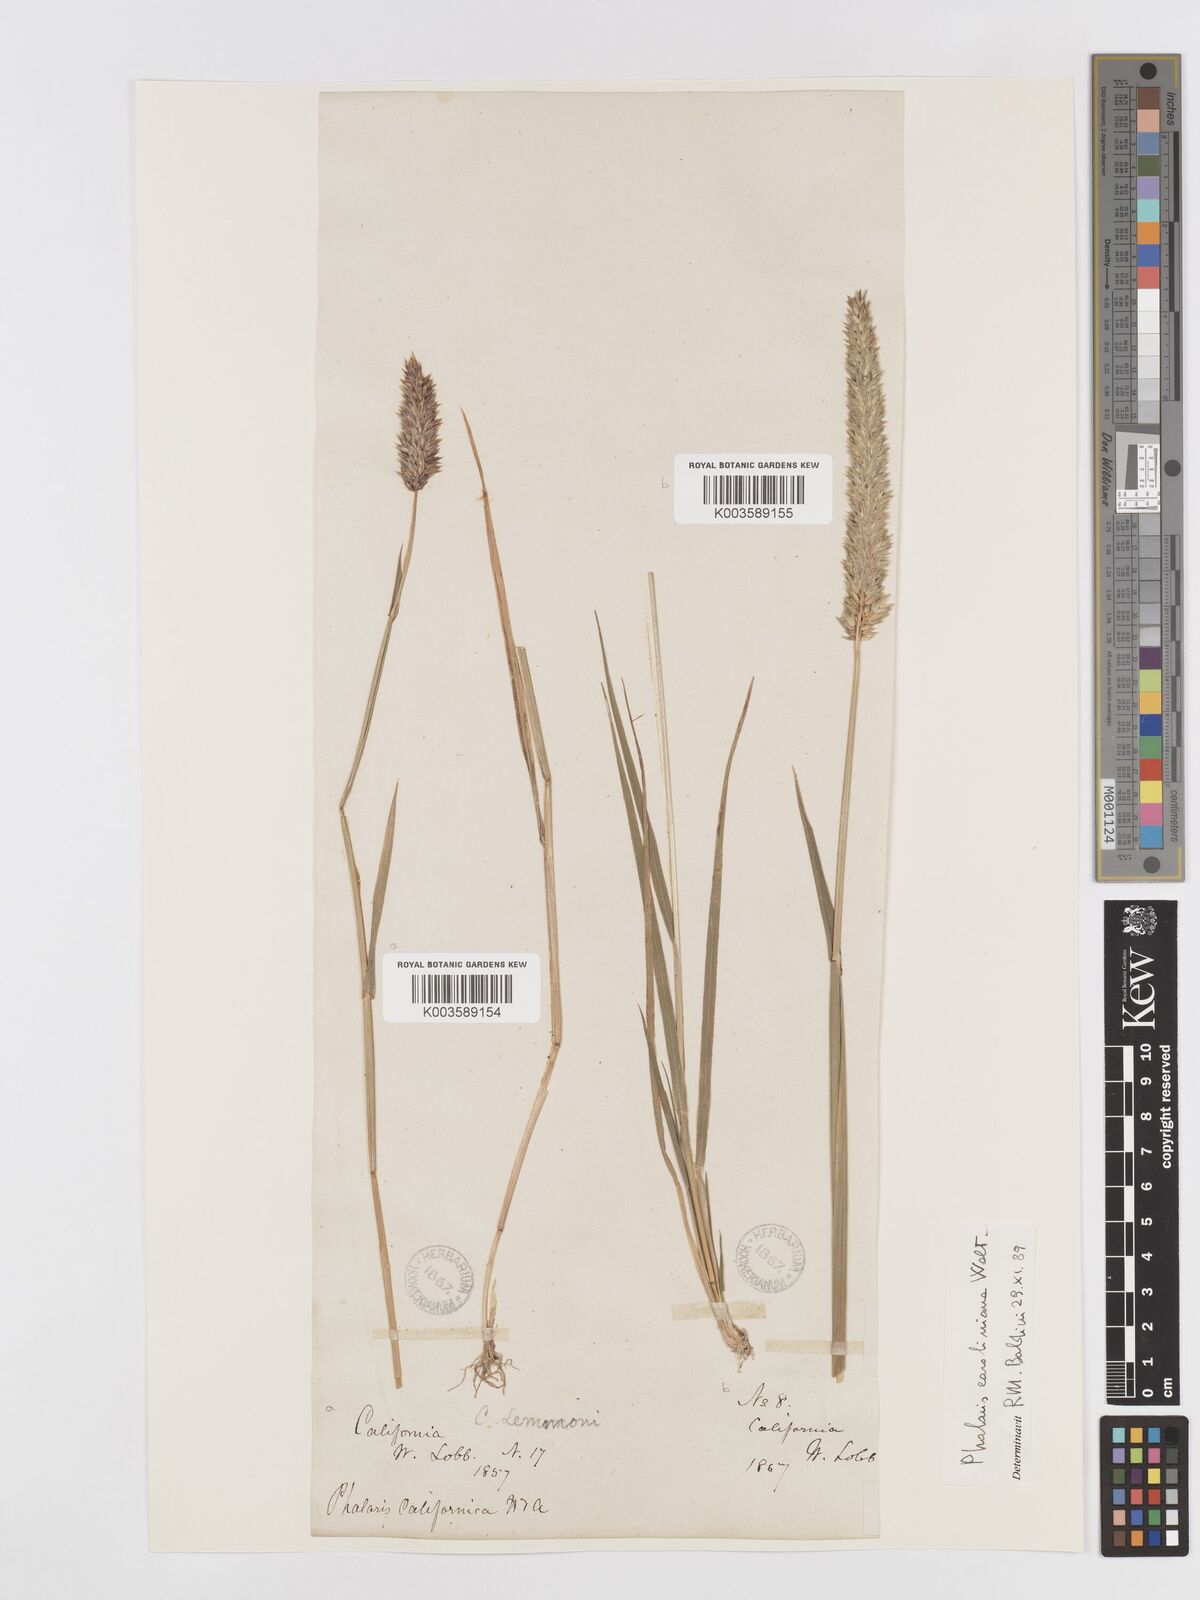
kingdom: Plantae
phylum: Tracheophyta
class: Liliopsida
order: Poales
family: Poaceae
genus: Phalaris
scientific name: Phalaris caroliniana
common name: May grass
